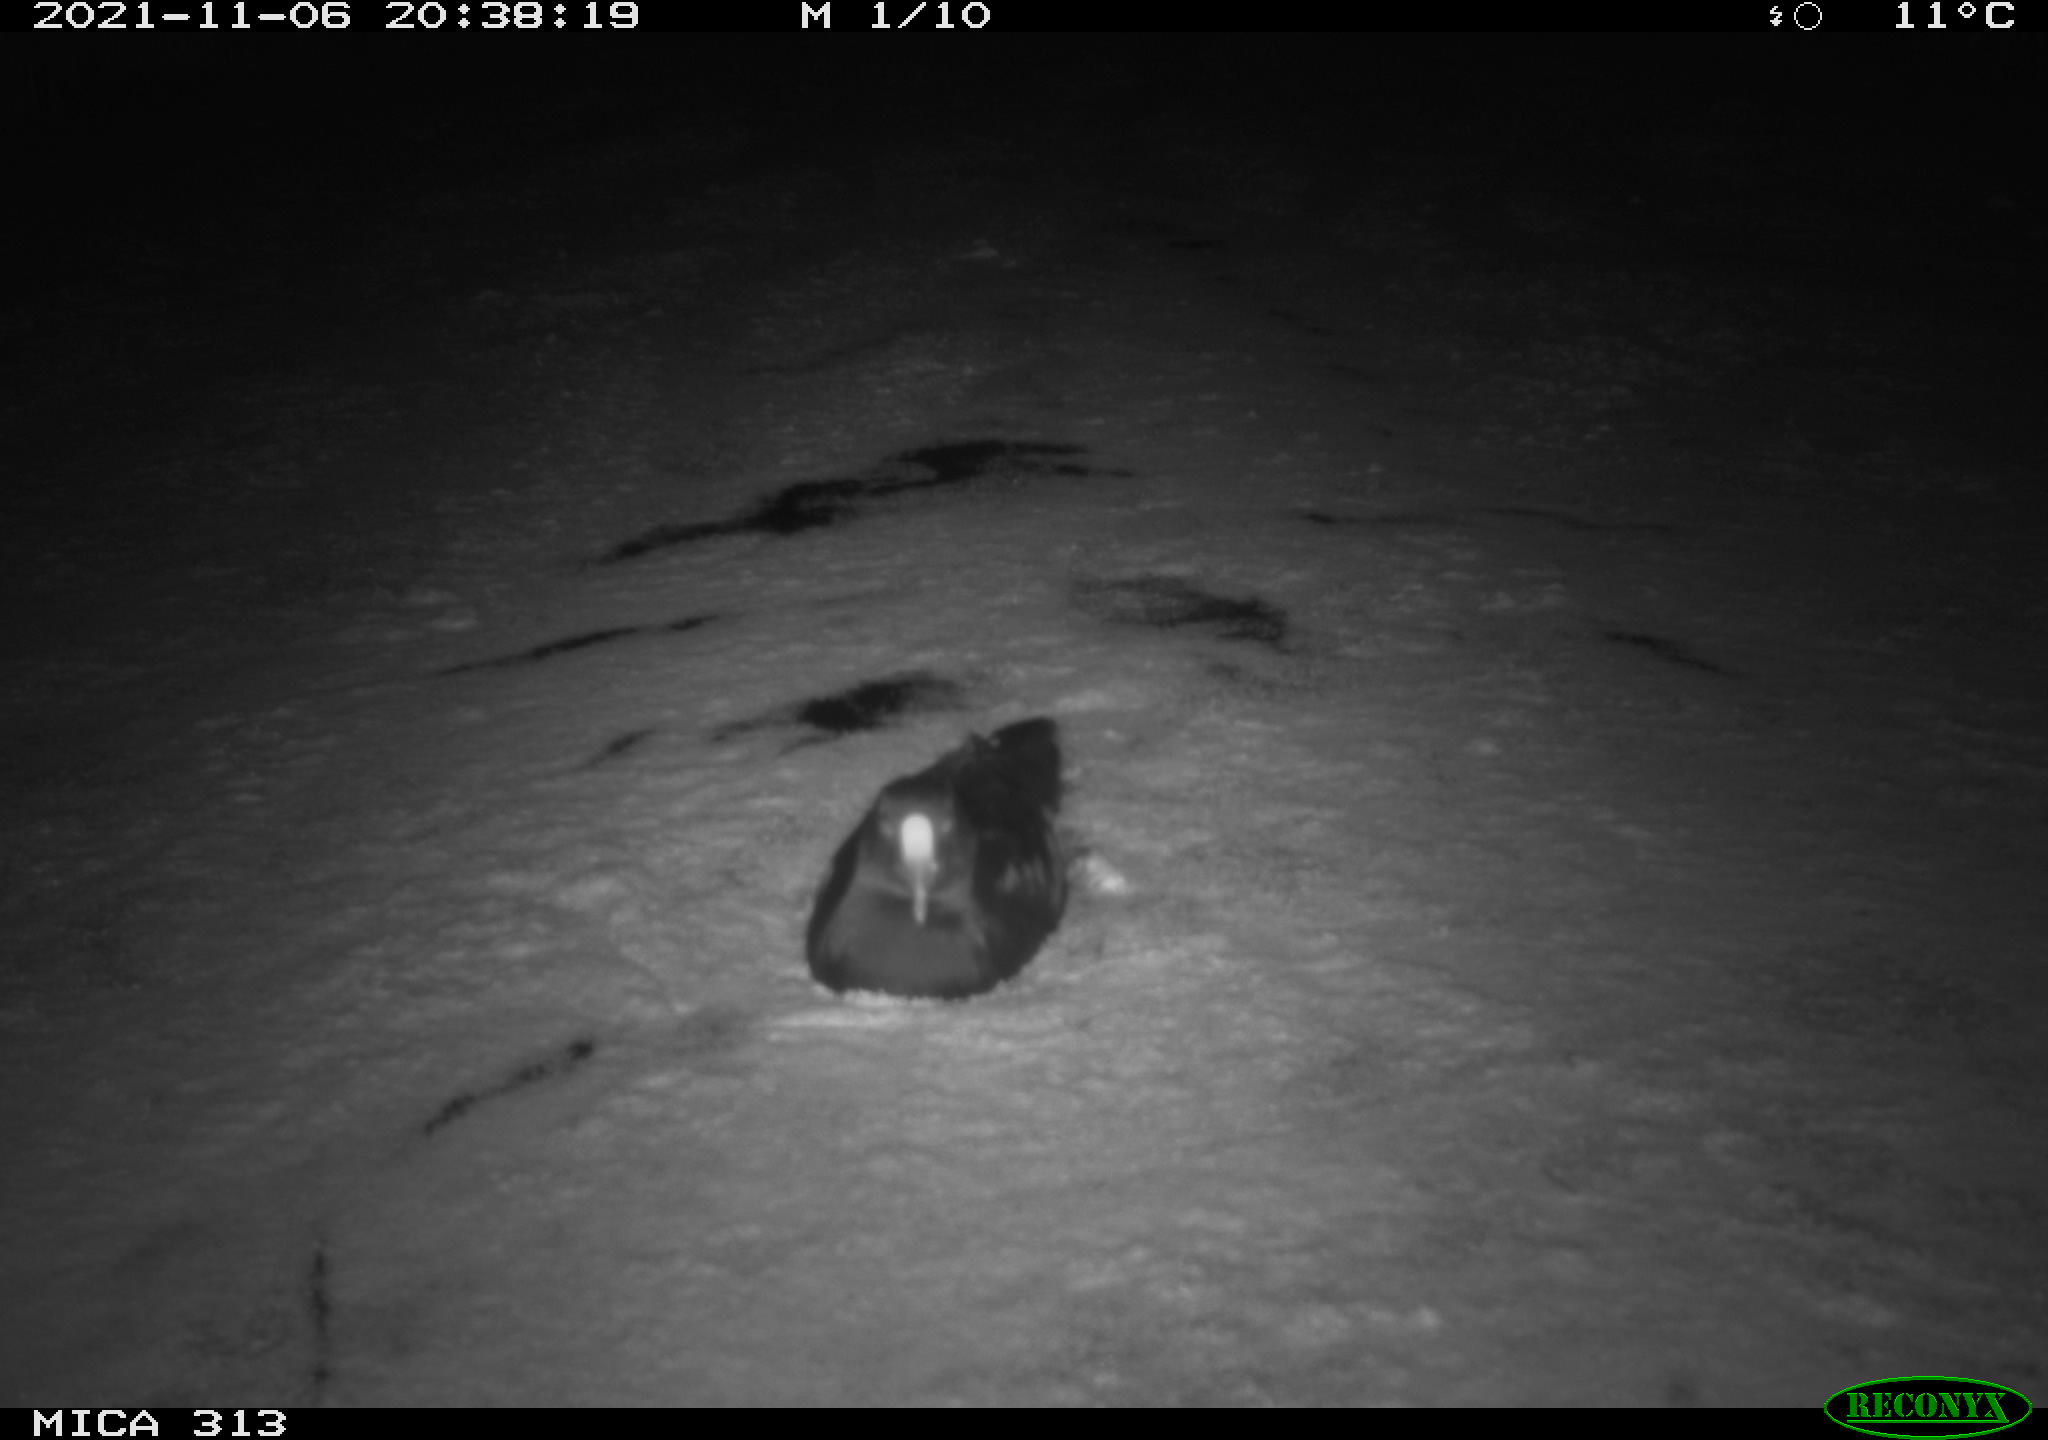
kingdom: Animalia
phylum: Chordata
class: Aves
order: Gruiformes
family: Rallidae
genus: Gallinula
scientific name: Gallinula chloropus
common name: Common moorhen
